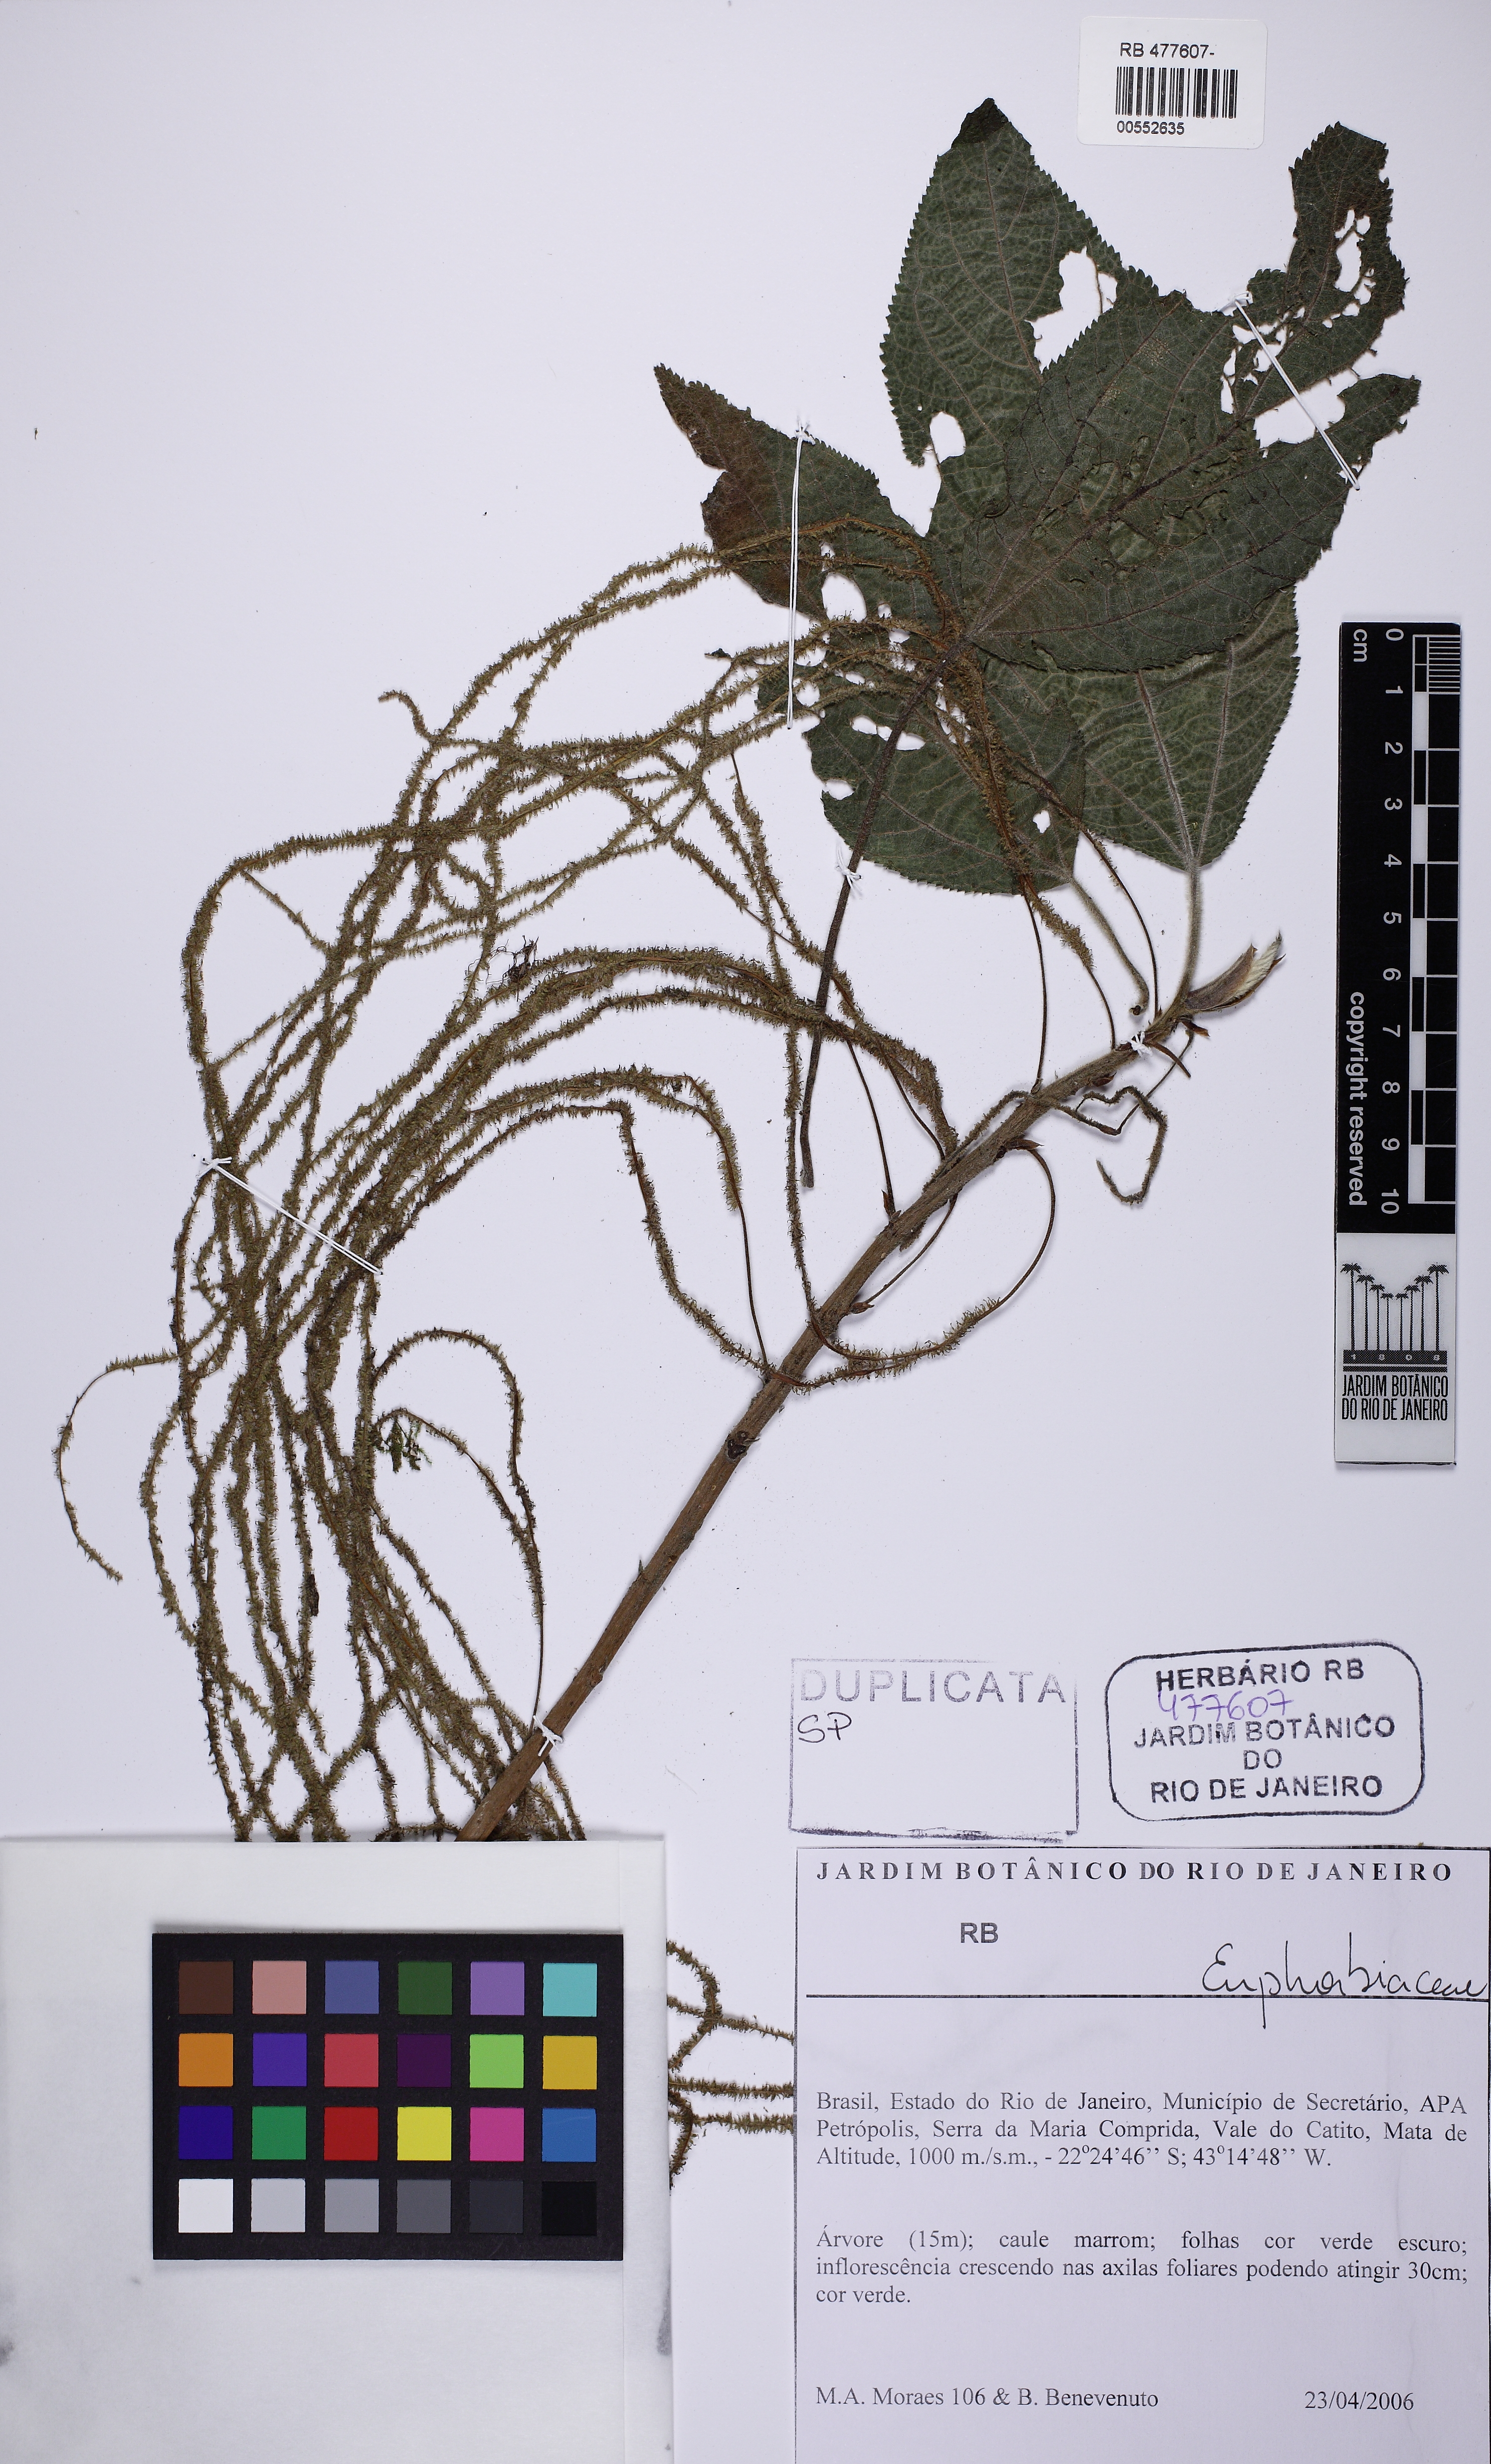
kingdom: Plantae
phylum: Tracheophyta
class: Magnoliopsida
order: Malpighiales
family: Euphorbiaceae
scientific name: Euphorbiaceae
